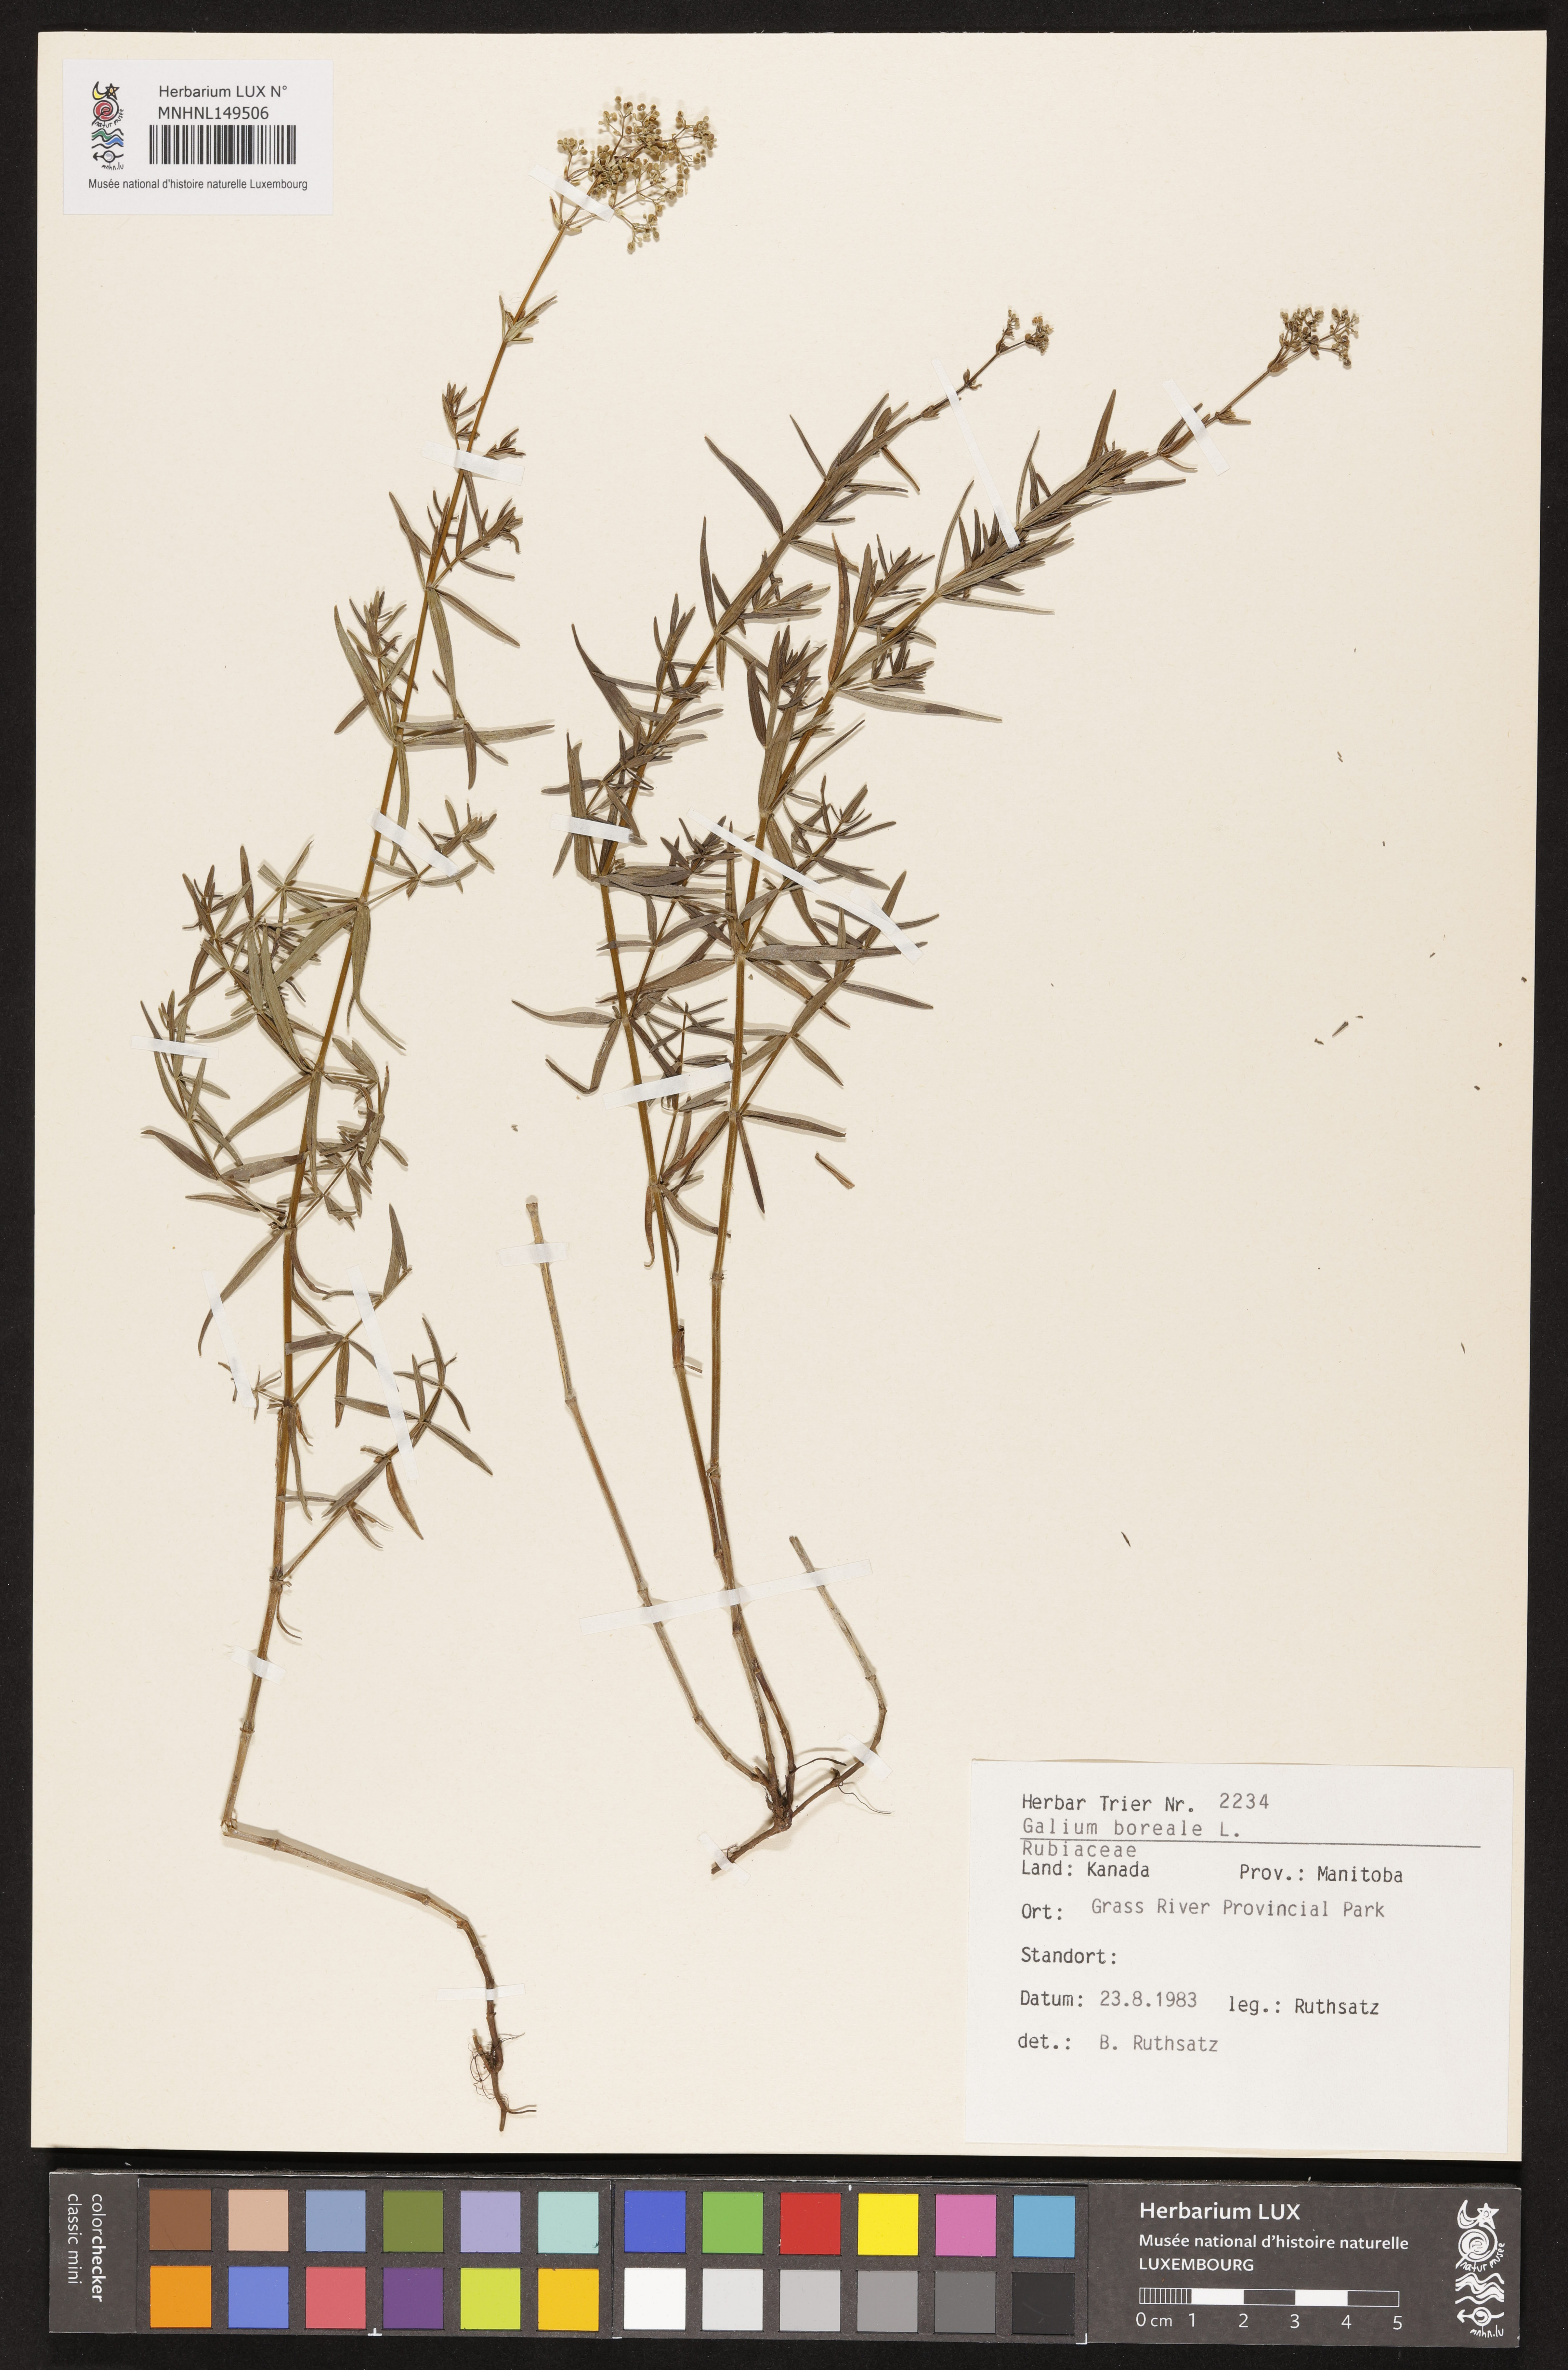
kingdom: Plantae
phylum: Tracheophyta
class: Magnoliopsida
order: Gentianales
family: Rubiaceae
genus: Galium
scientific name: Galium boreale
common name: Northern bedstraw
